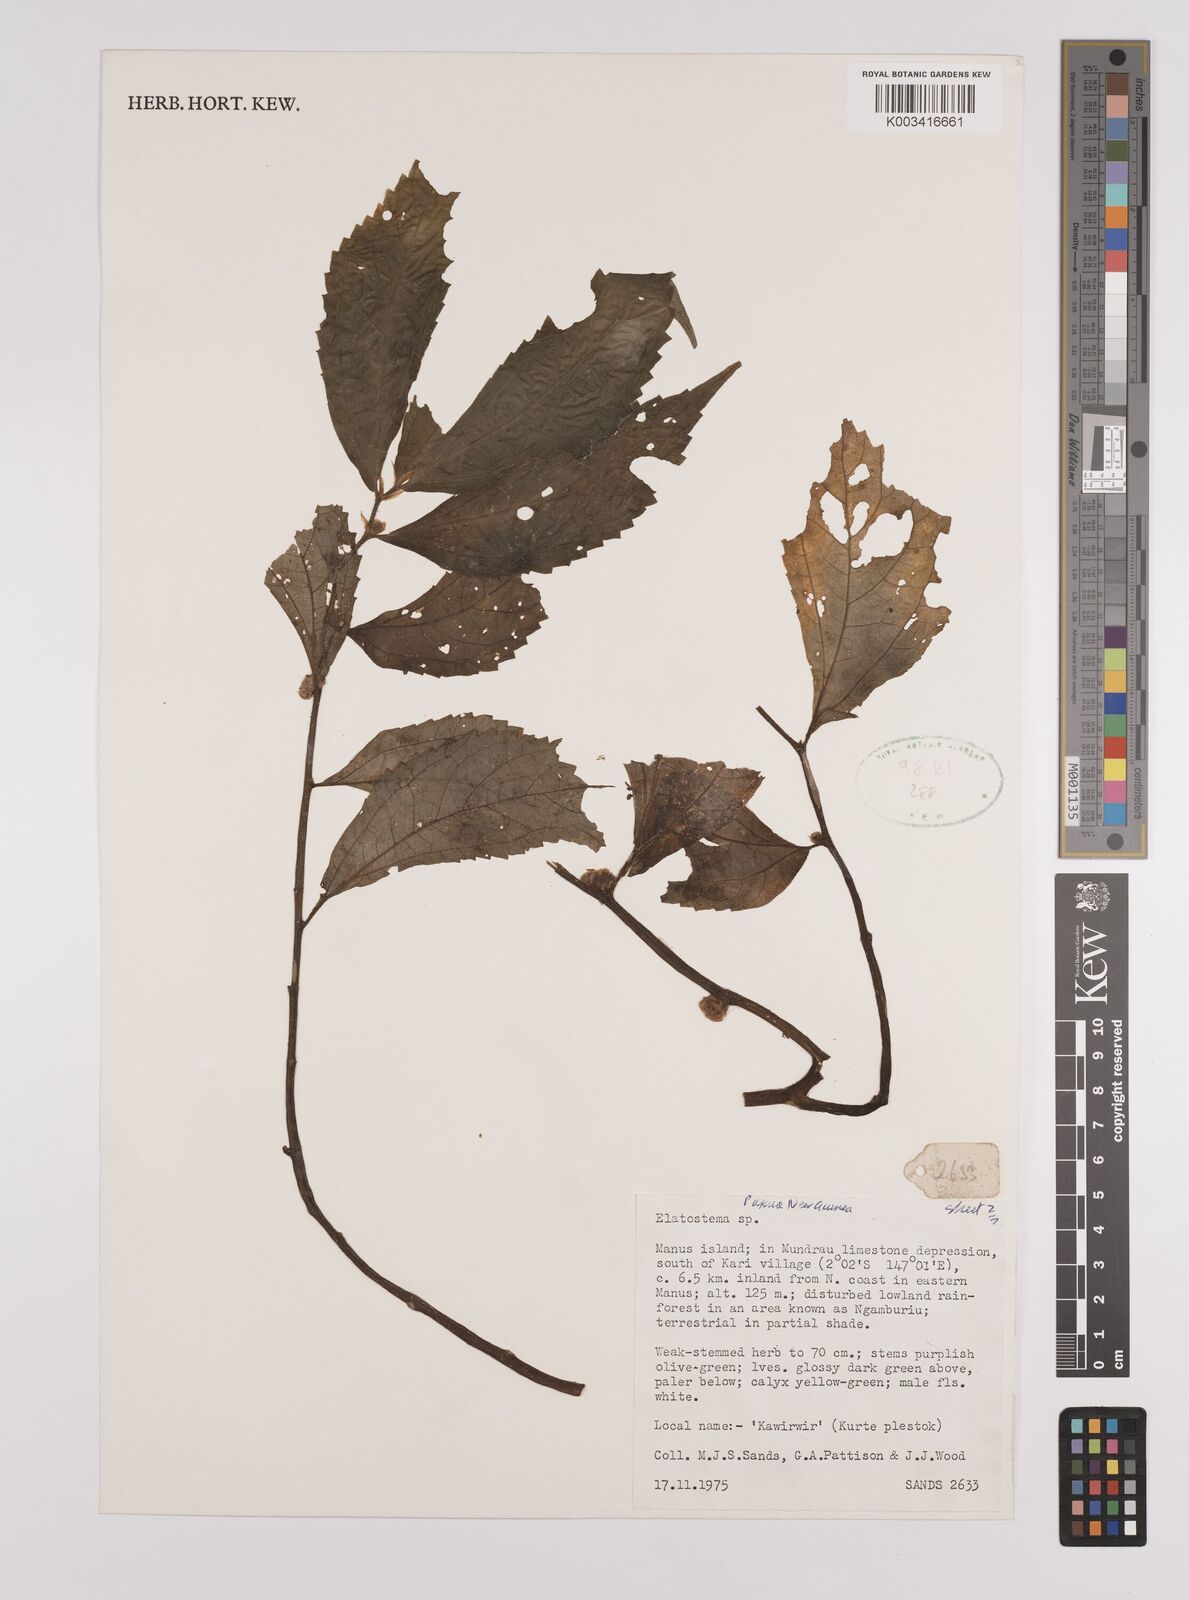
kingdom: Plantae
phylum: Tracheophyta
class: Magnoliopsida
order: Rosales
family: Urticaceae
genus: Elatostema
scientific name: Elatostema
